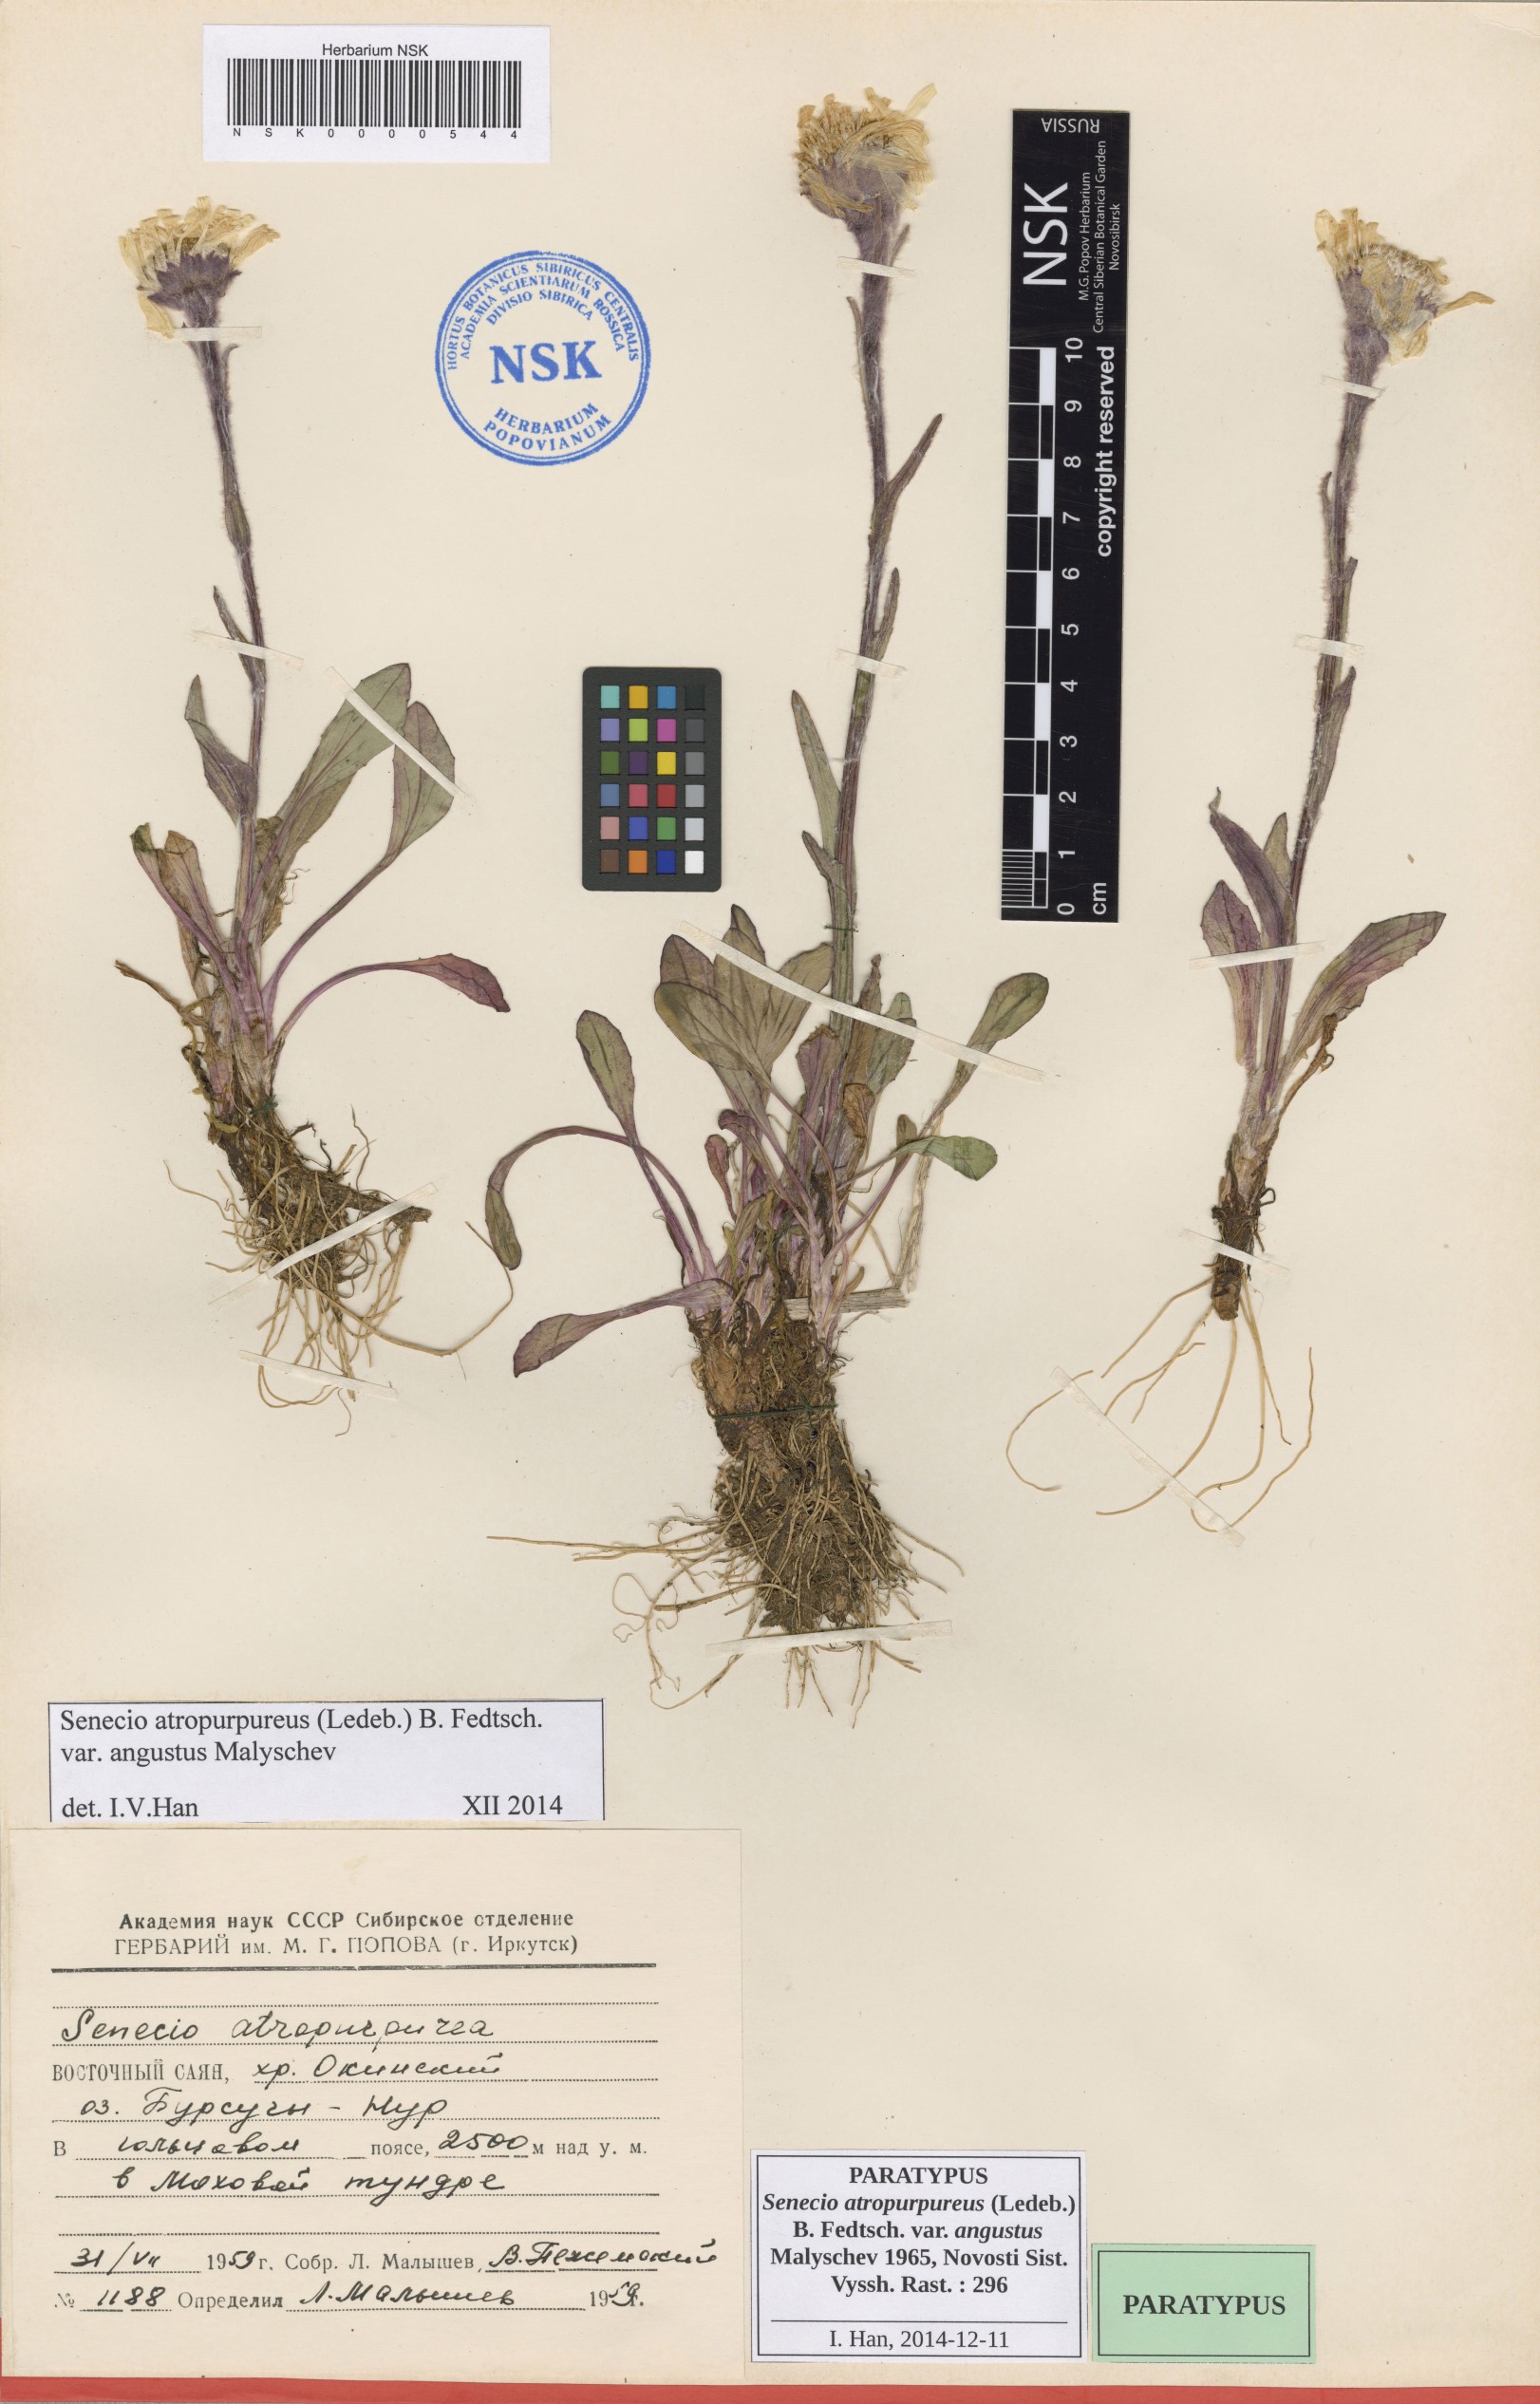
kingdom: Plantae
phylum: Tracheophyta
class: Magnoliopsida
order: Asterales
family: Asteraceae
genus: Tephroseris
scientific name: Tephroseris integrifolia
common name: Field fleawort
